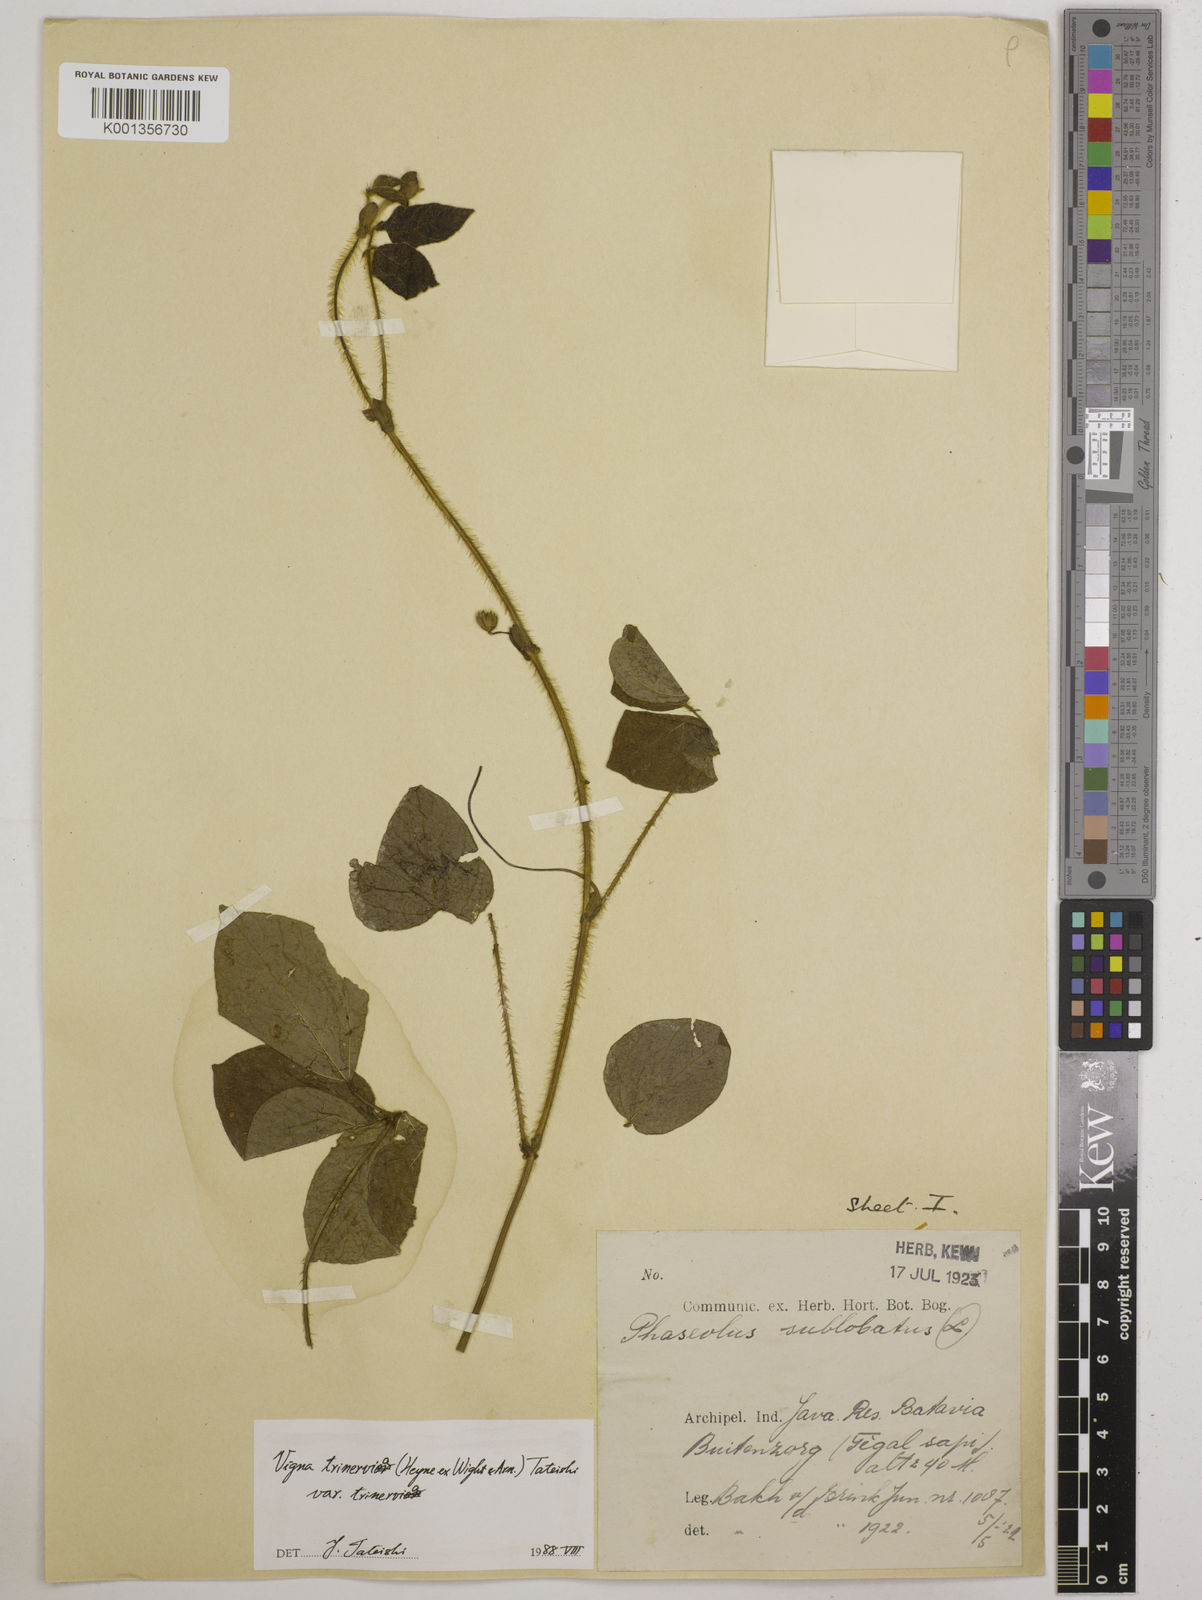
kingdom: Plantae
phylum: Tracheophyta
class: Magnoliopsida
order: Fabales
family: Fabaceae
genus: Vigna
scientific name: Vigna
